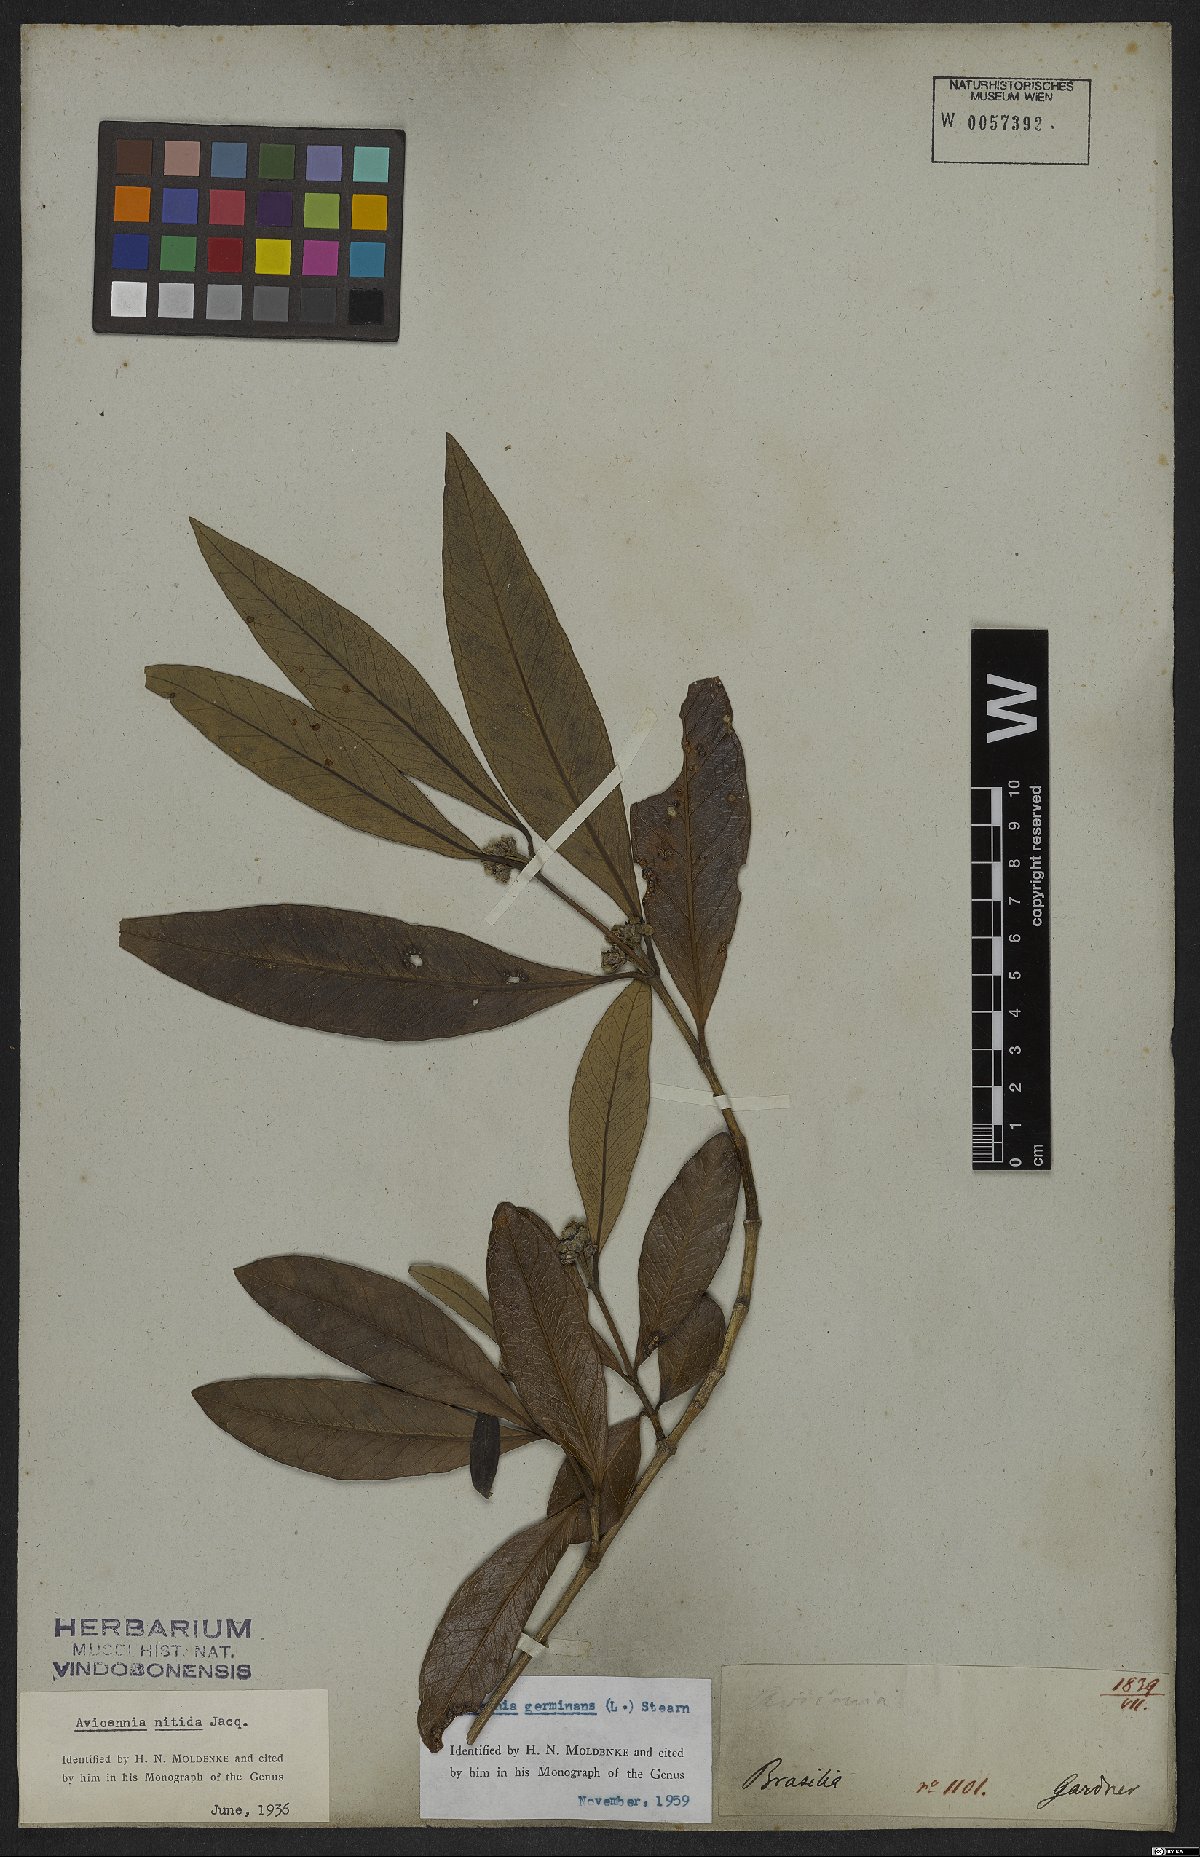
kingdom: Plantae
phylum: Tracheophyta
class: Magnoliopsida
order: Lamiales
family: Acanthaceae
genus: Avicennia
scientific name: Avicennia germinans
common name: Black mangrove
